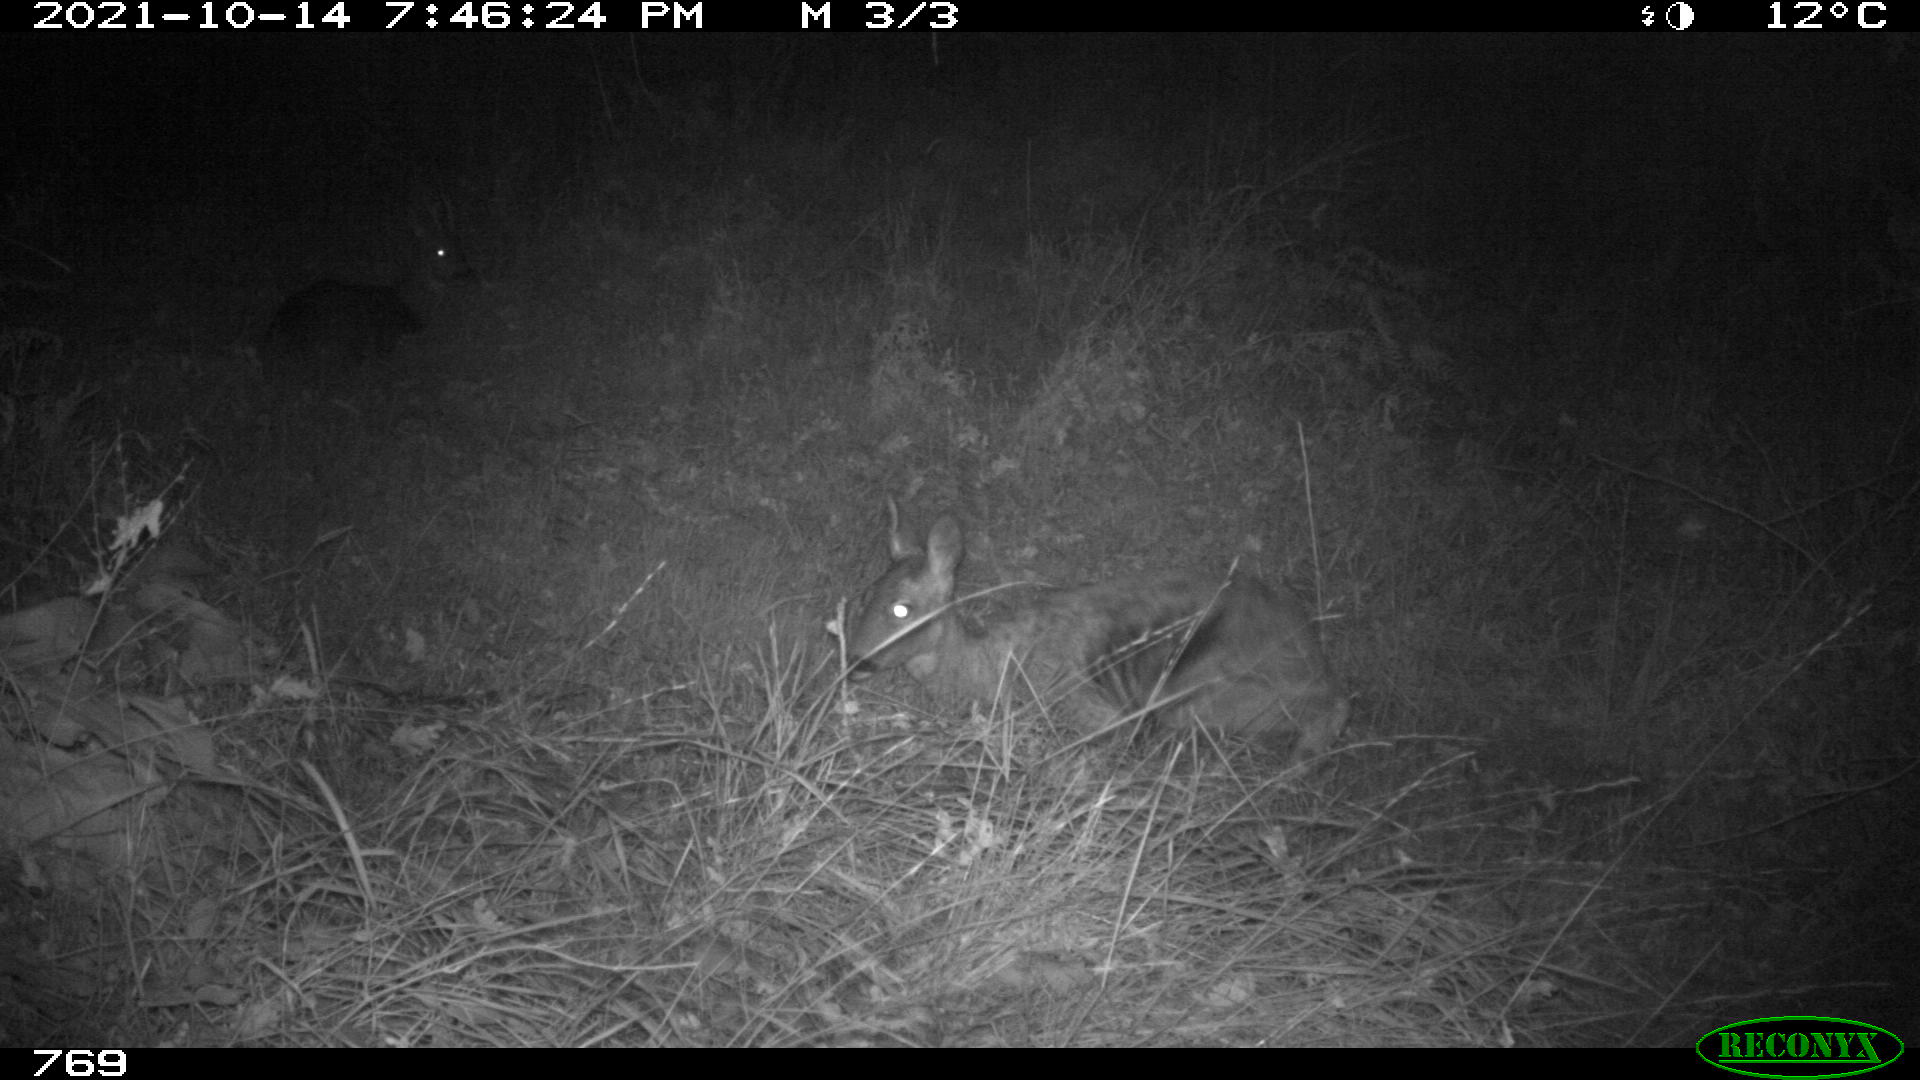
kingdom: Animalia
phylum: Chordata
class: Mammalia
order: Artiodactyla
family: Cervidae
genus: Capreolus
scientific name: Capreolus capreolus
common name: Western roe deer
